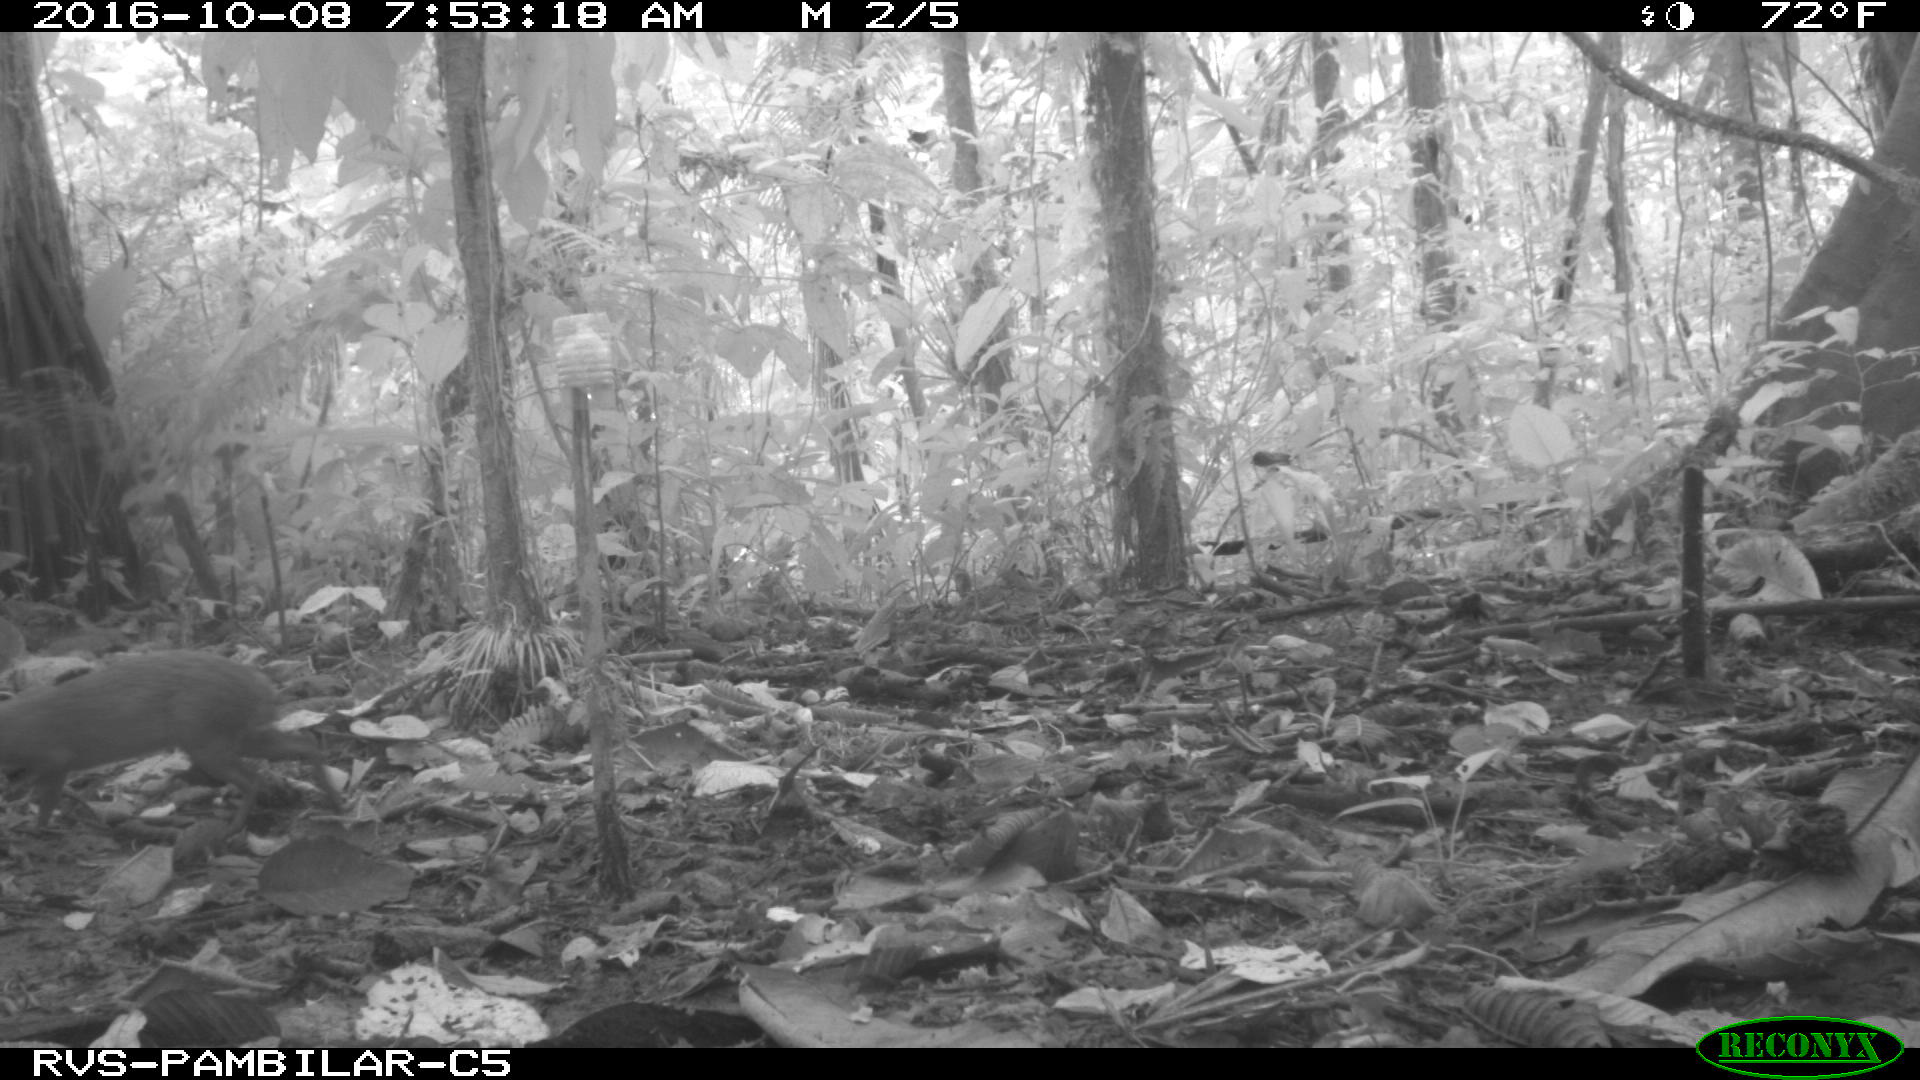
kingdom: Animalia
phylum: Chordata
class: Mammalia
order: Rodentia
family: Dasyproctidae
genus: Dasyprocta
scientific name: Dasyprocta punctata
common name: Central american agouti
